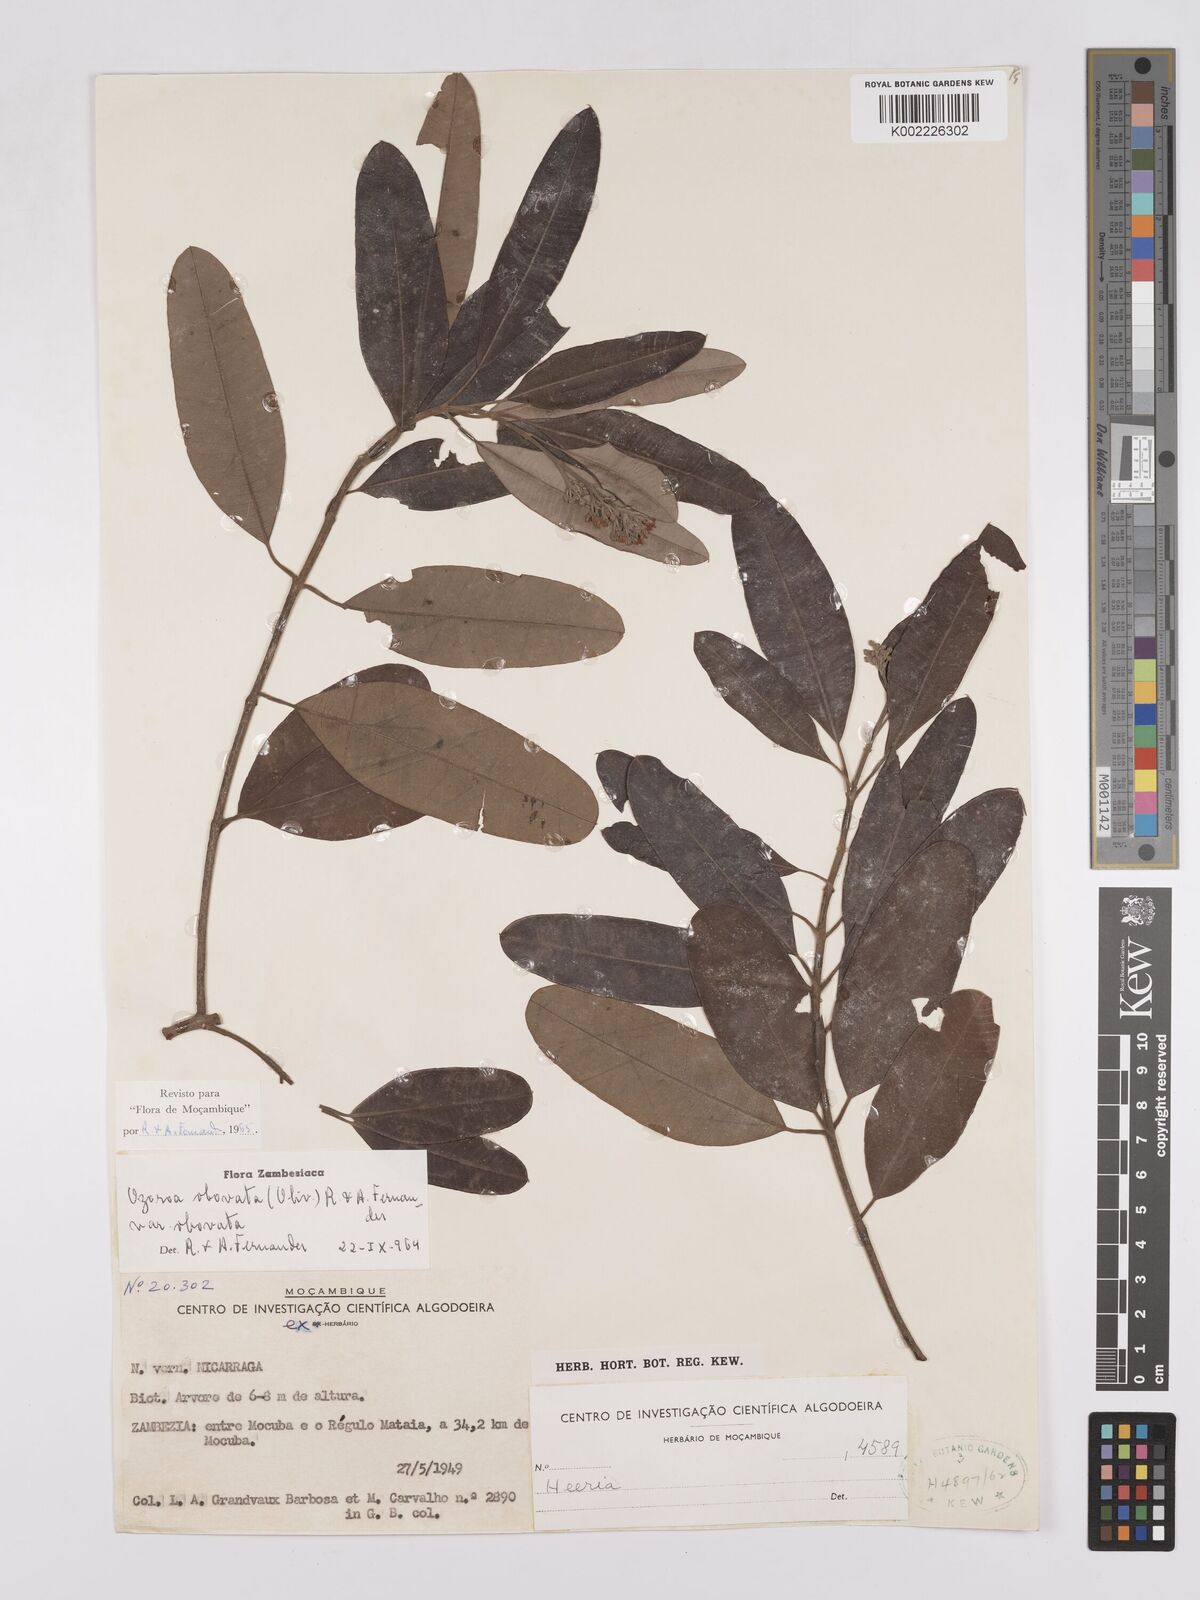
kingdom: Plantae
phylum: Tracheophyta
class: Magnoliopsida
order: Sapindales
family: Anacardiaceae
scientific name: Anacardiaceae
